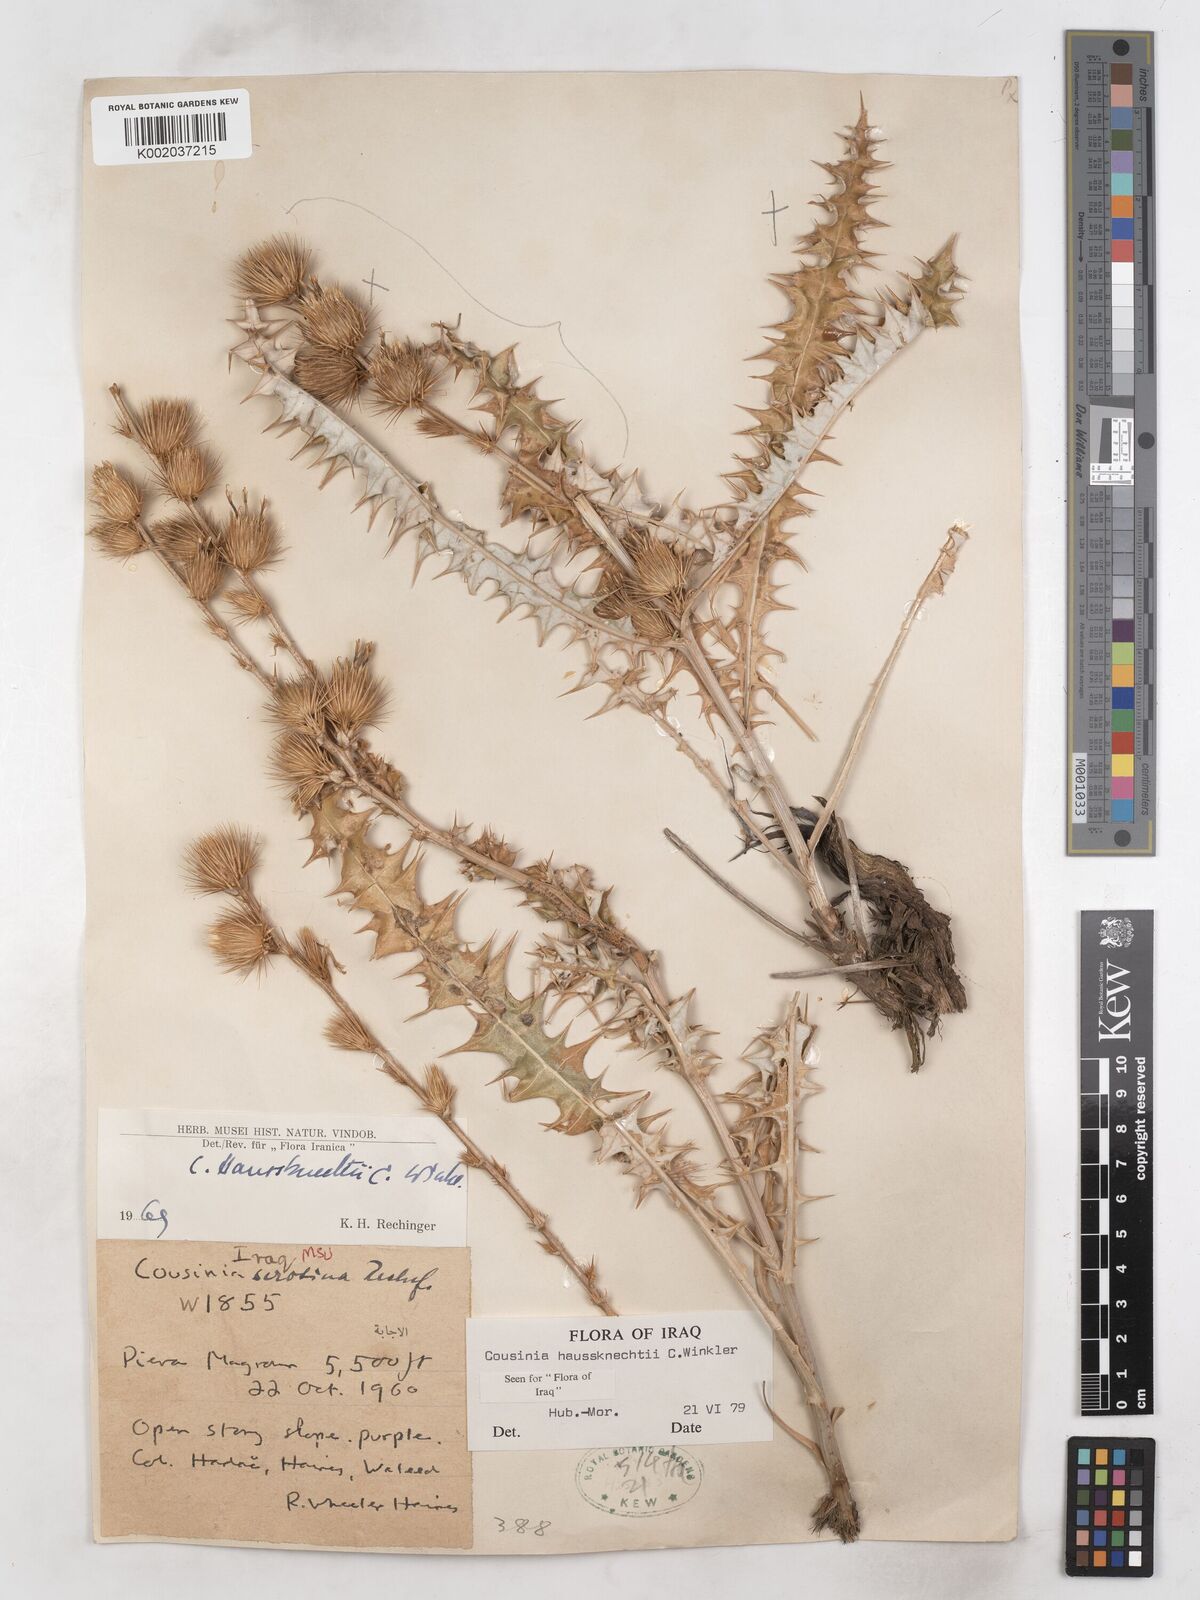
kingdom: Plantae
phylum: Tracheophyta
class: Magnoliopsida
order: Asterales
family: Asteraceae
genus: Cousinia
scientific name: Cousinia haussknechtii
